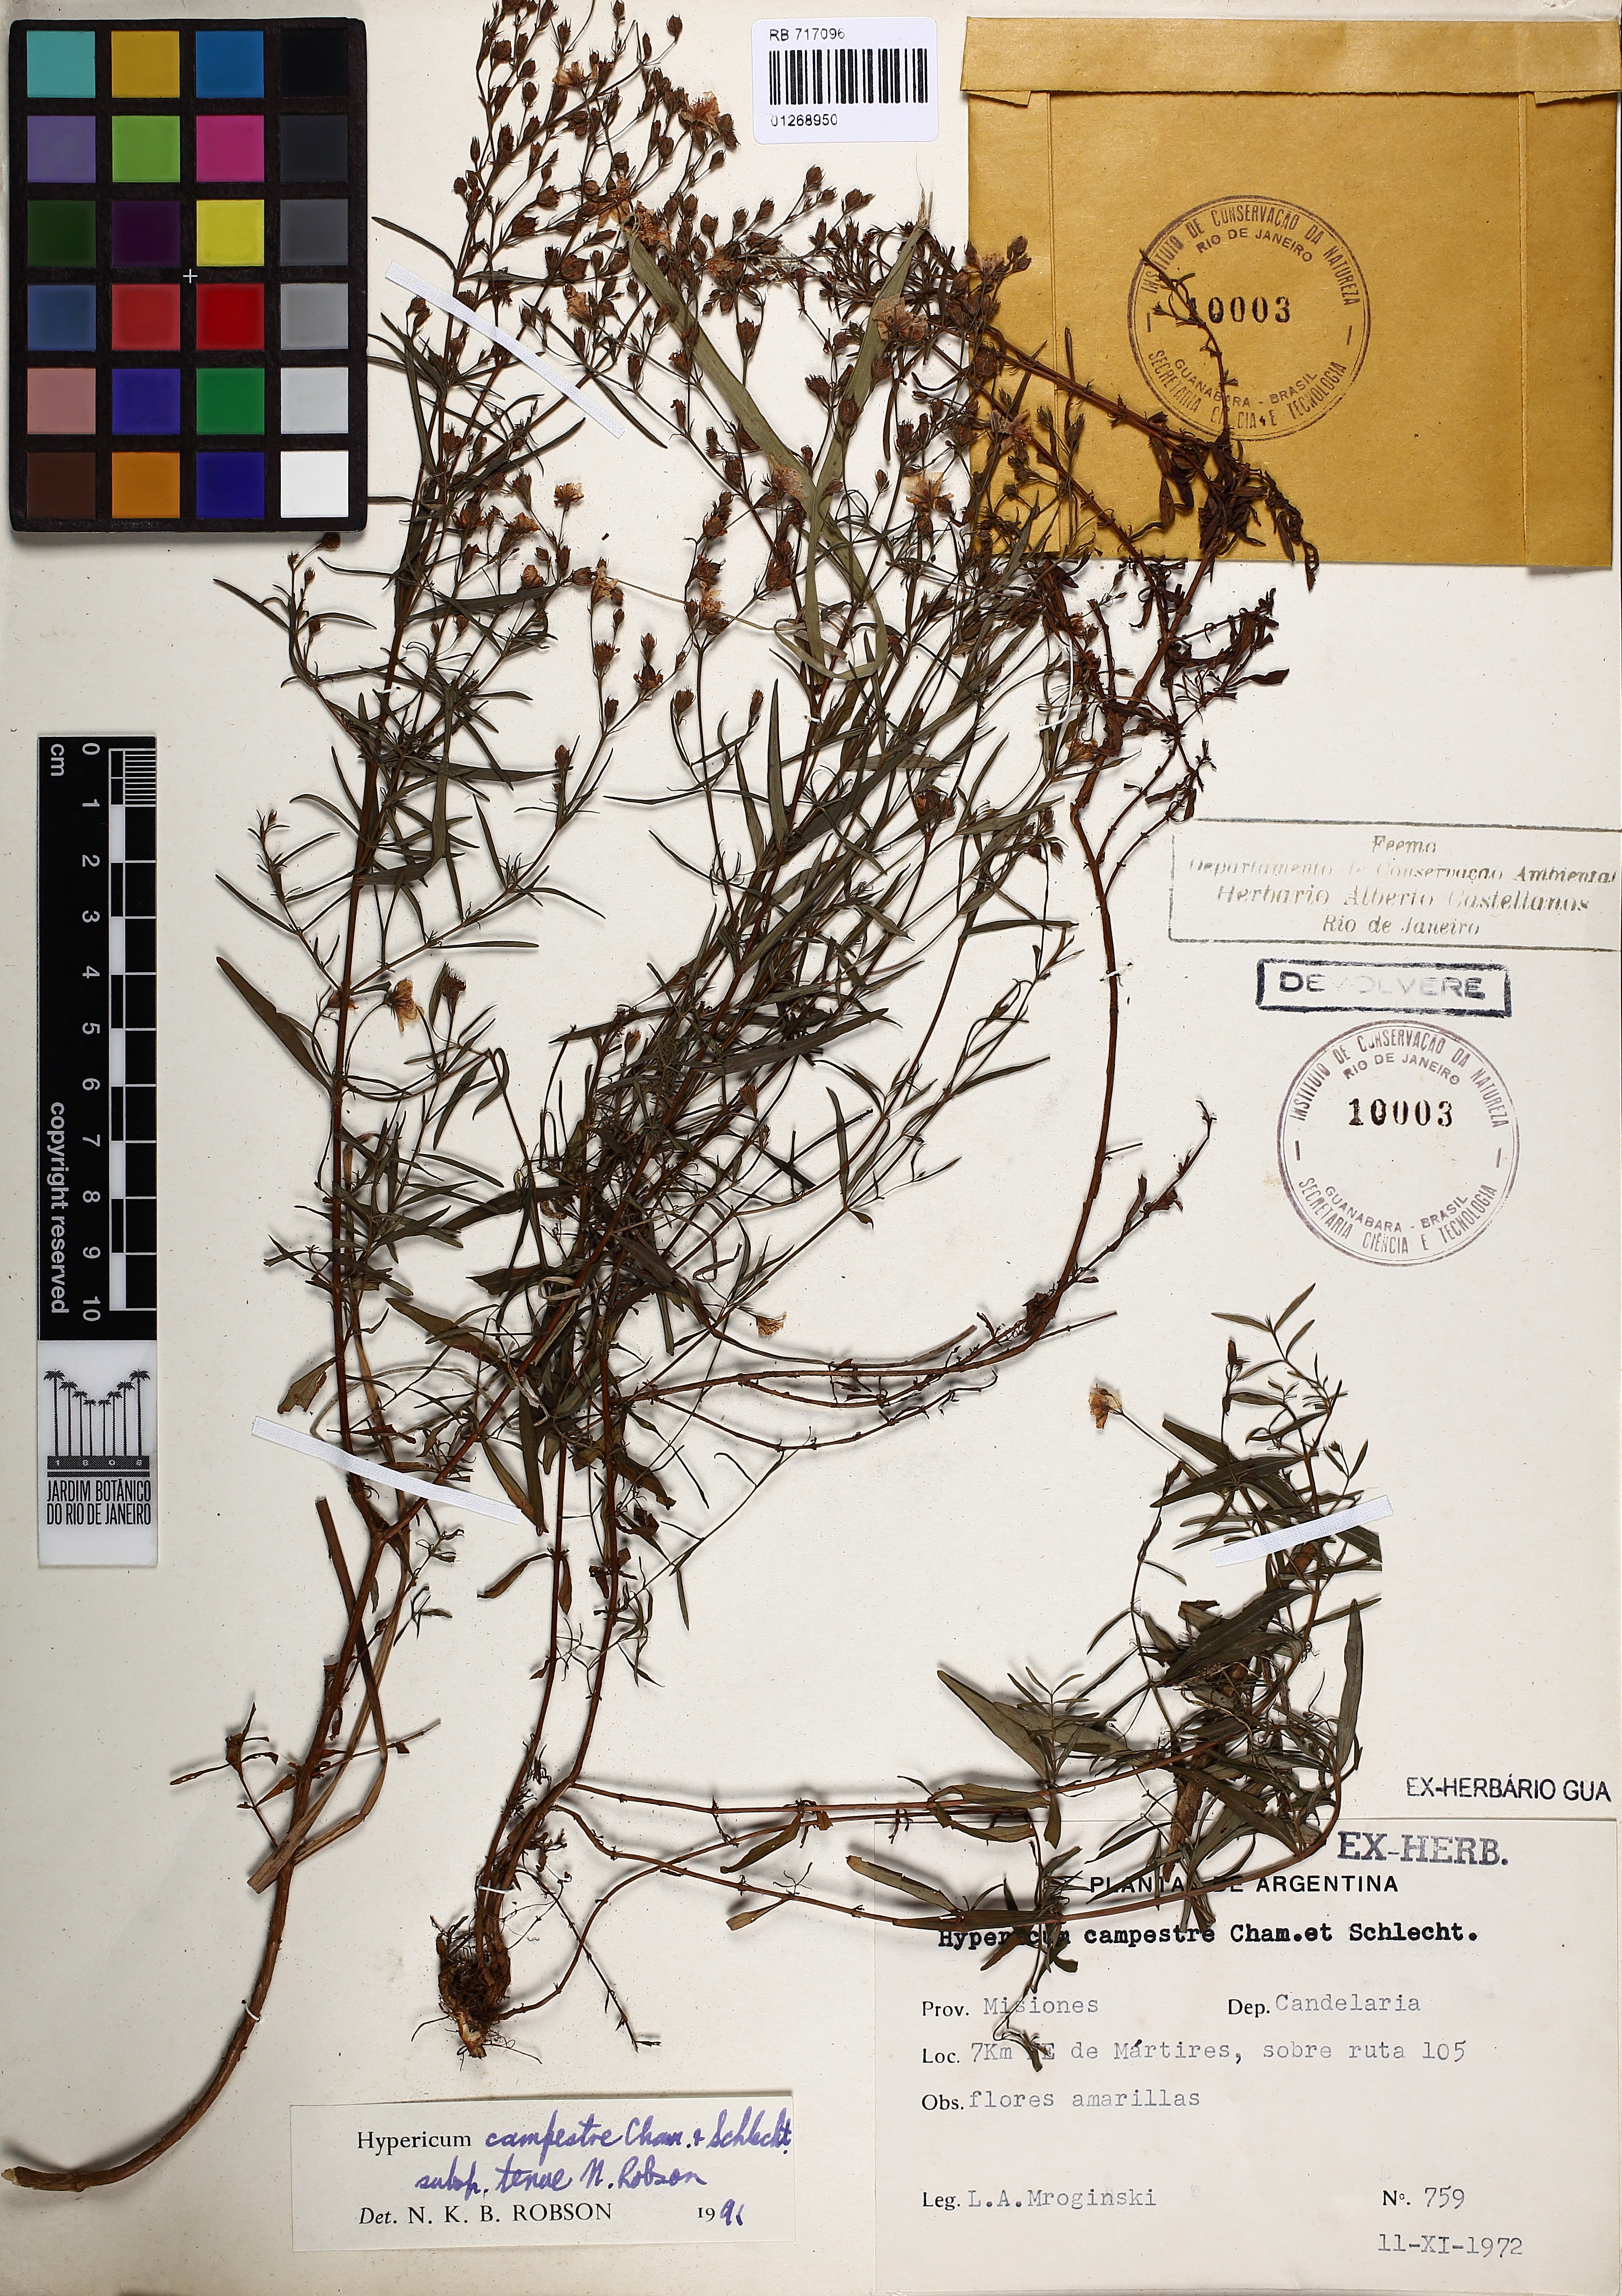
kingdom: Plantae
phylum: Tracheophyta
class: Magnoliopsida
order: Malpighiales
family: Hypericaceae
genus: Hypericum
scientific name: Hypericum campestre
